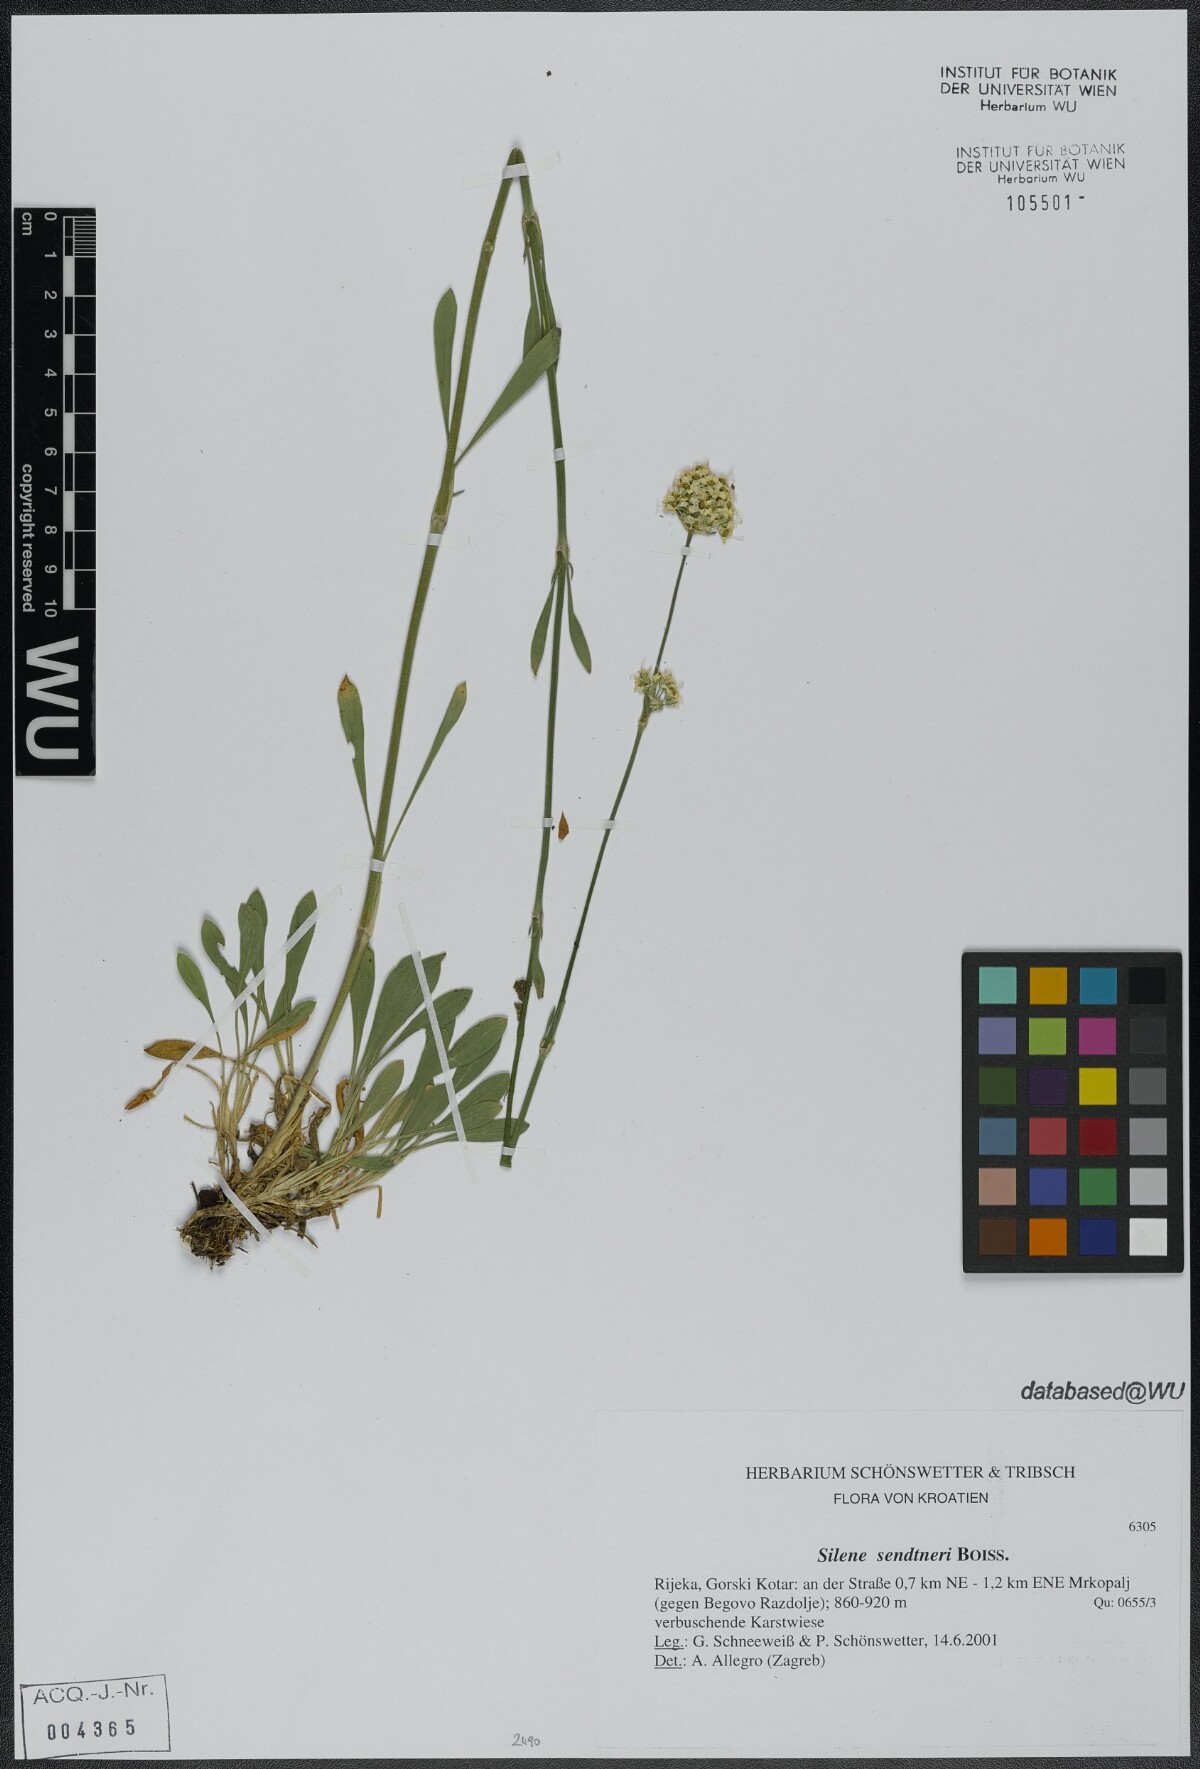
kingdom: Plantae
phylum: Tracheophyta
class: Magnoliopsida
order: Caryophyllales
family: Caryophyllaceae
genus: Silene
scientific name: Silene sendtneri
